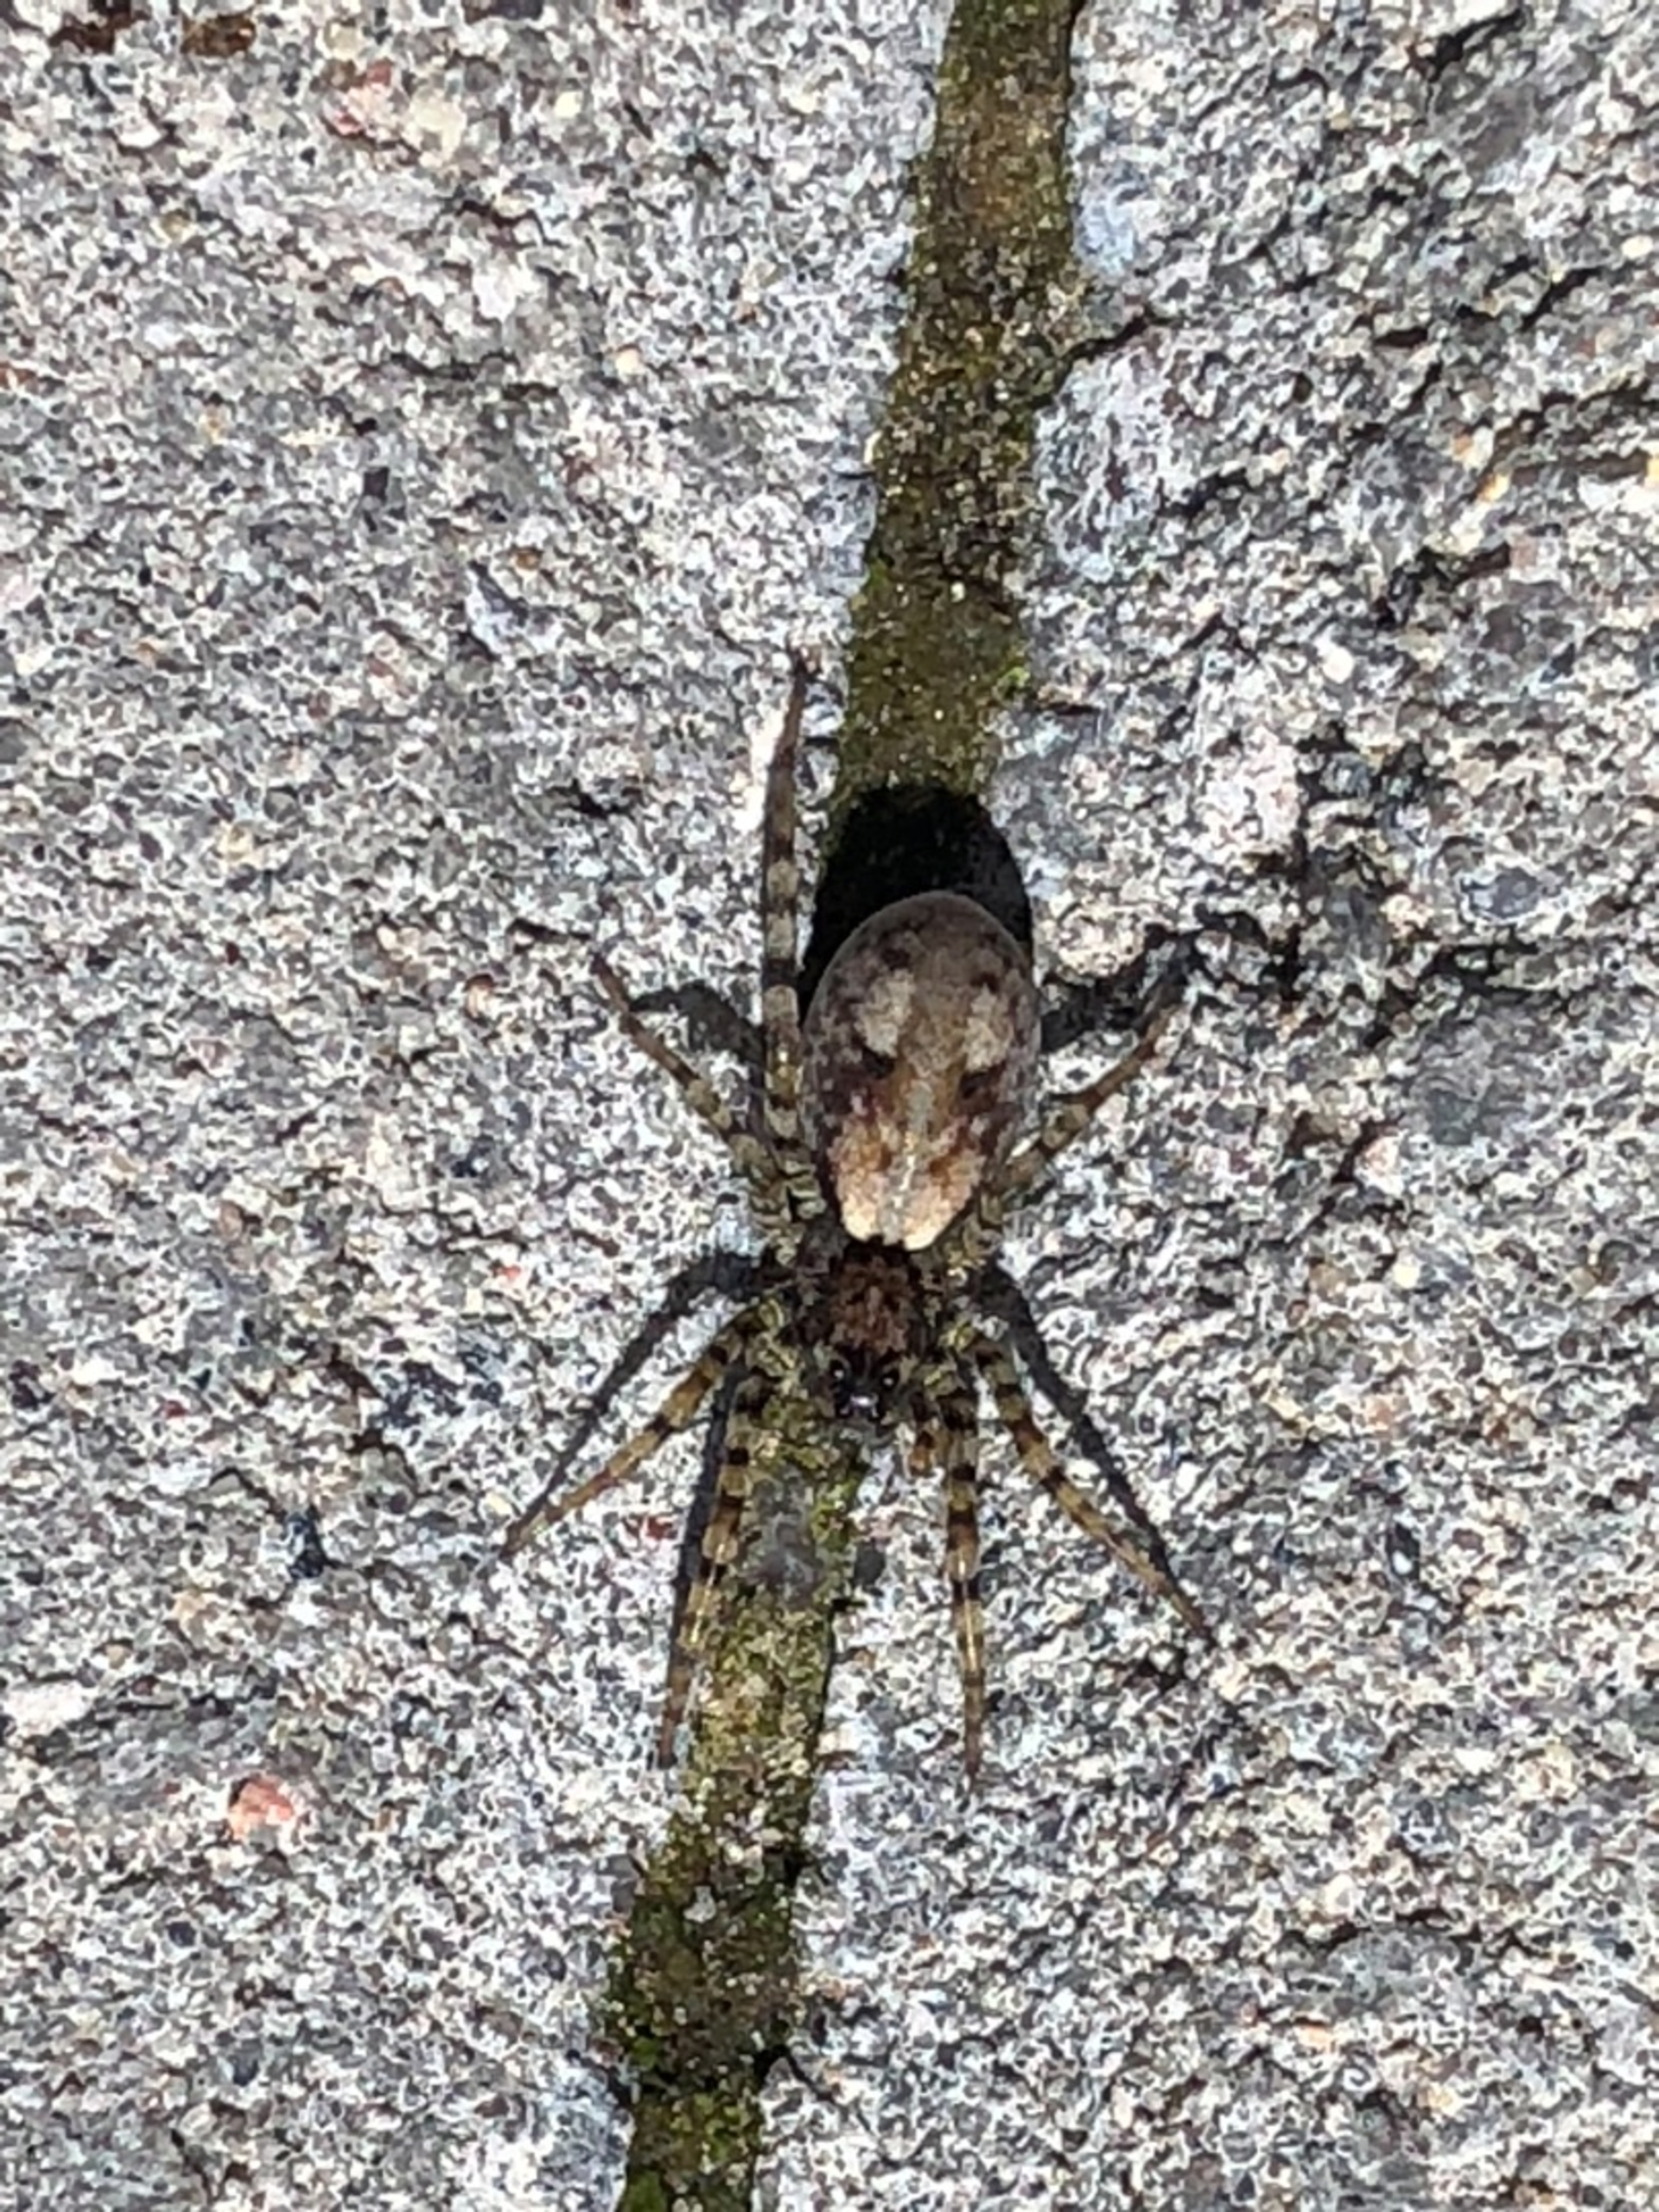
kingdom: Animalia
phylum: Arthropoda
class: Arachnida
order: Araneae
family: Lycosidae
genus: Arctosa
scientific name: Arctosa perita
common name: Klitgraveedderkop
